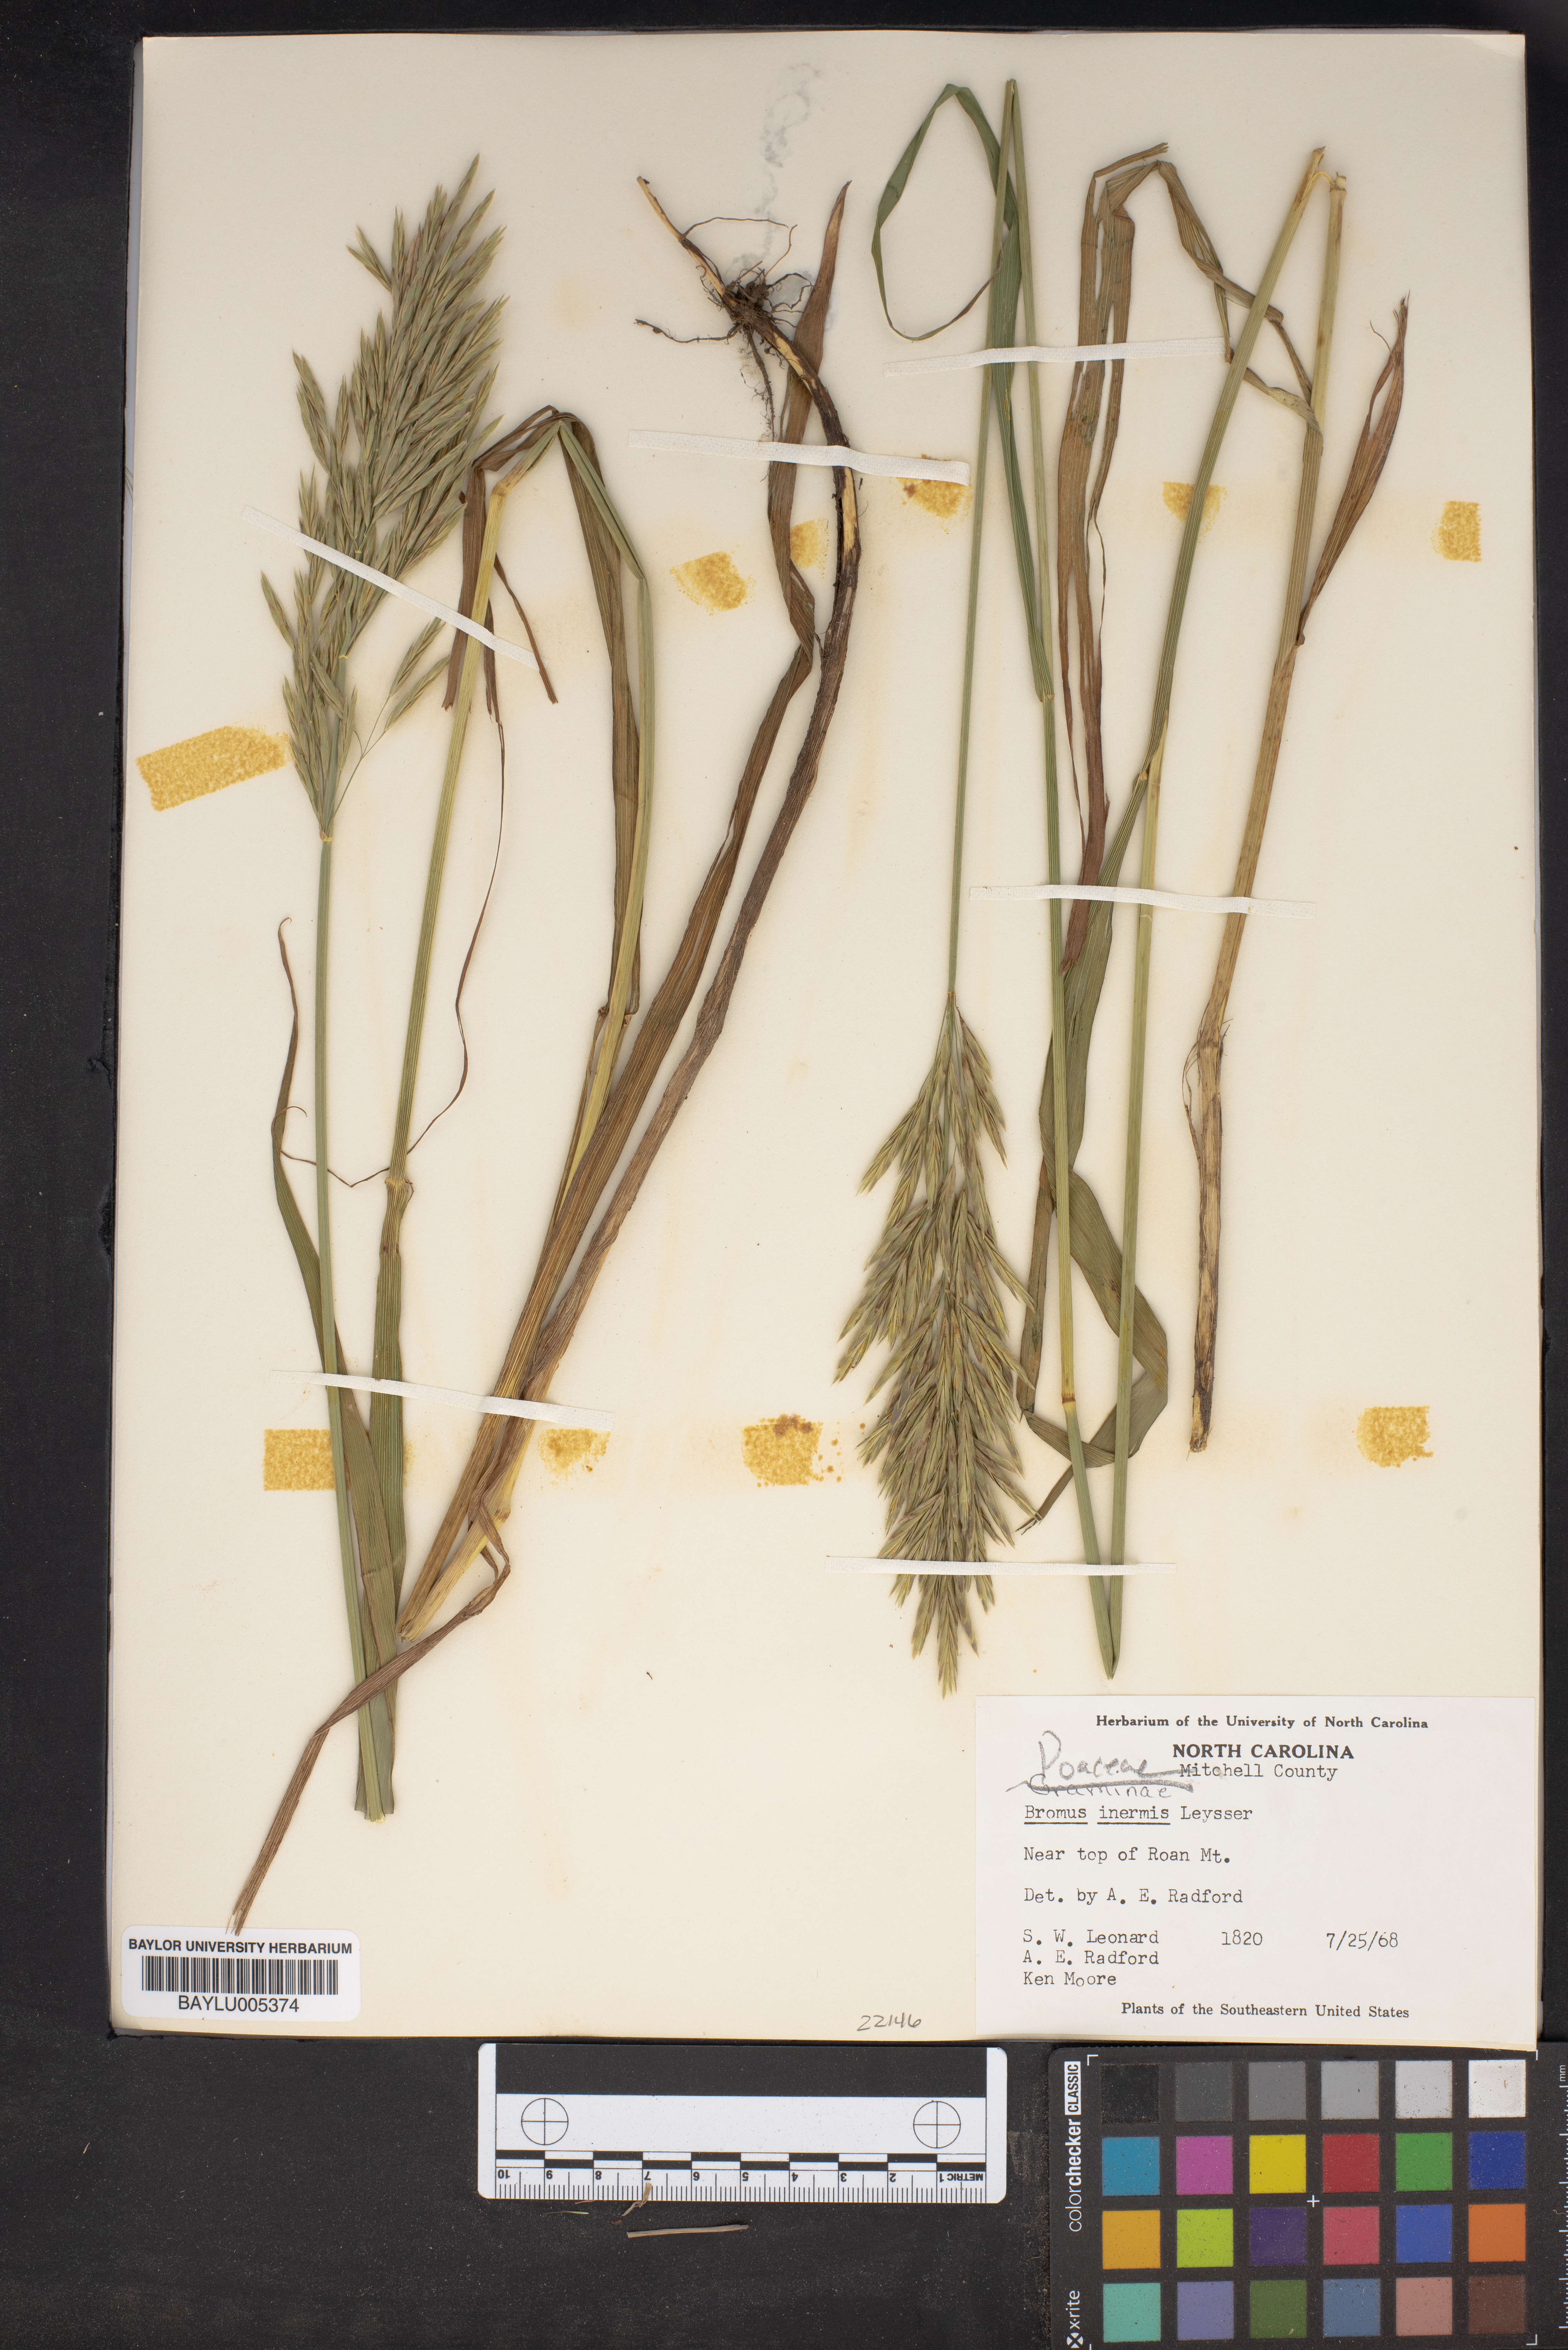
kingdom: Plantae
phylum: Tracheophyta
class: Liliopsida
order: Poales
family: Poaceae
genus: Bromus
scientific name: Bromus inermis
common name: Smooth brome
